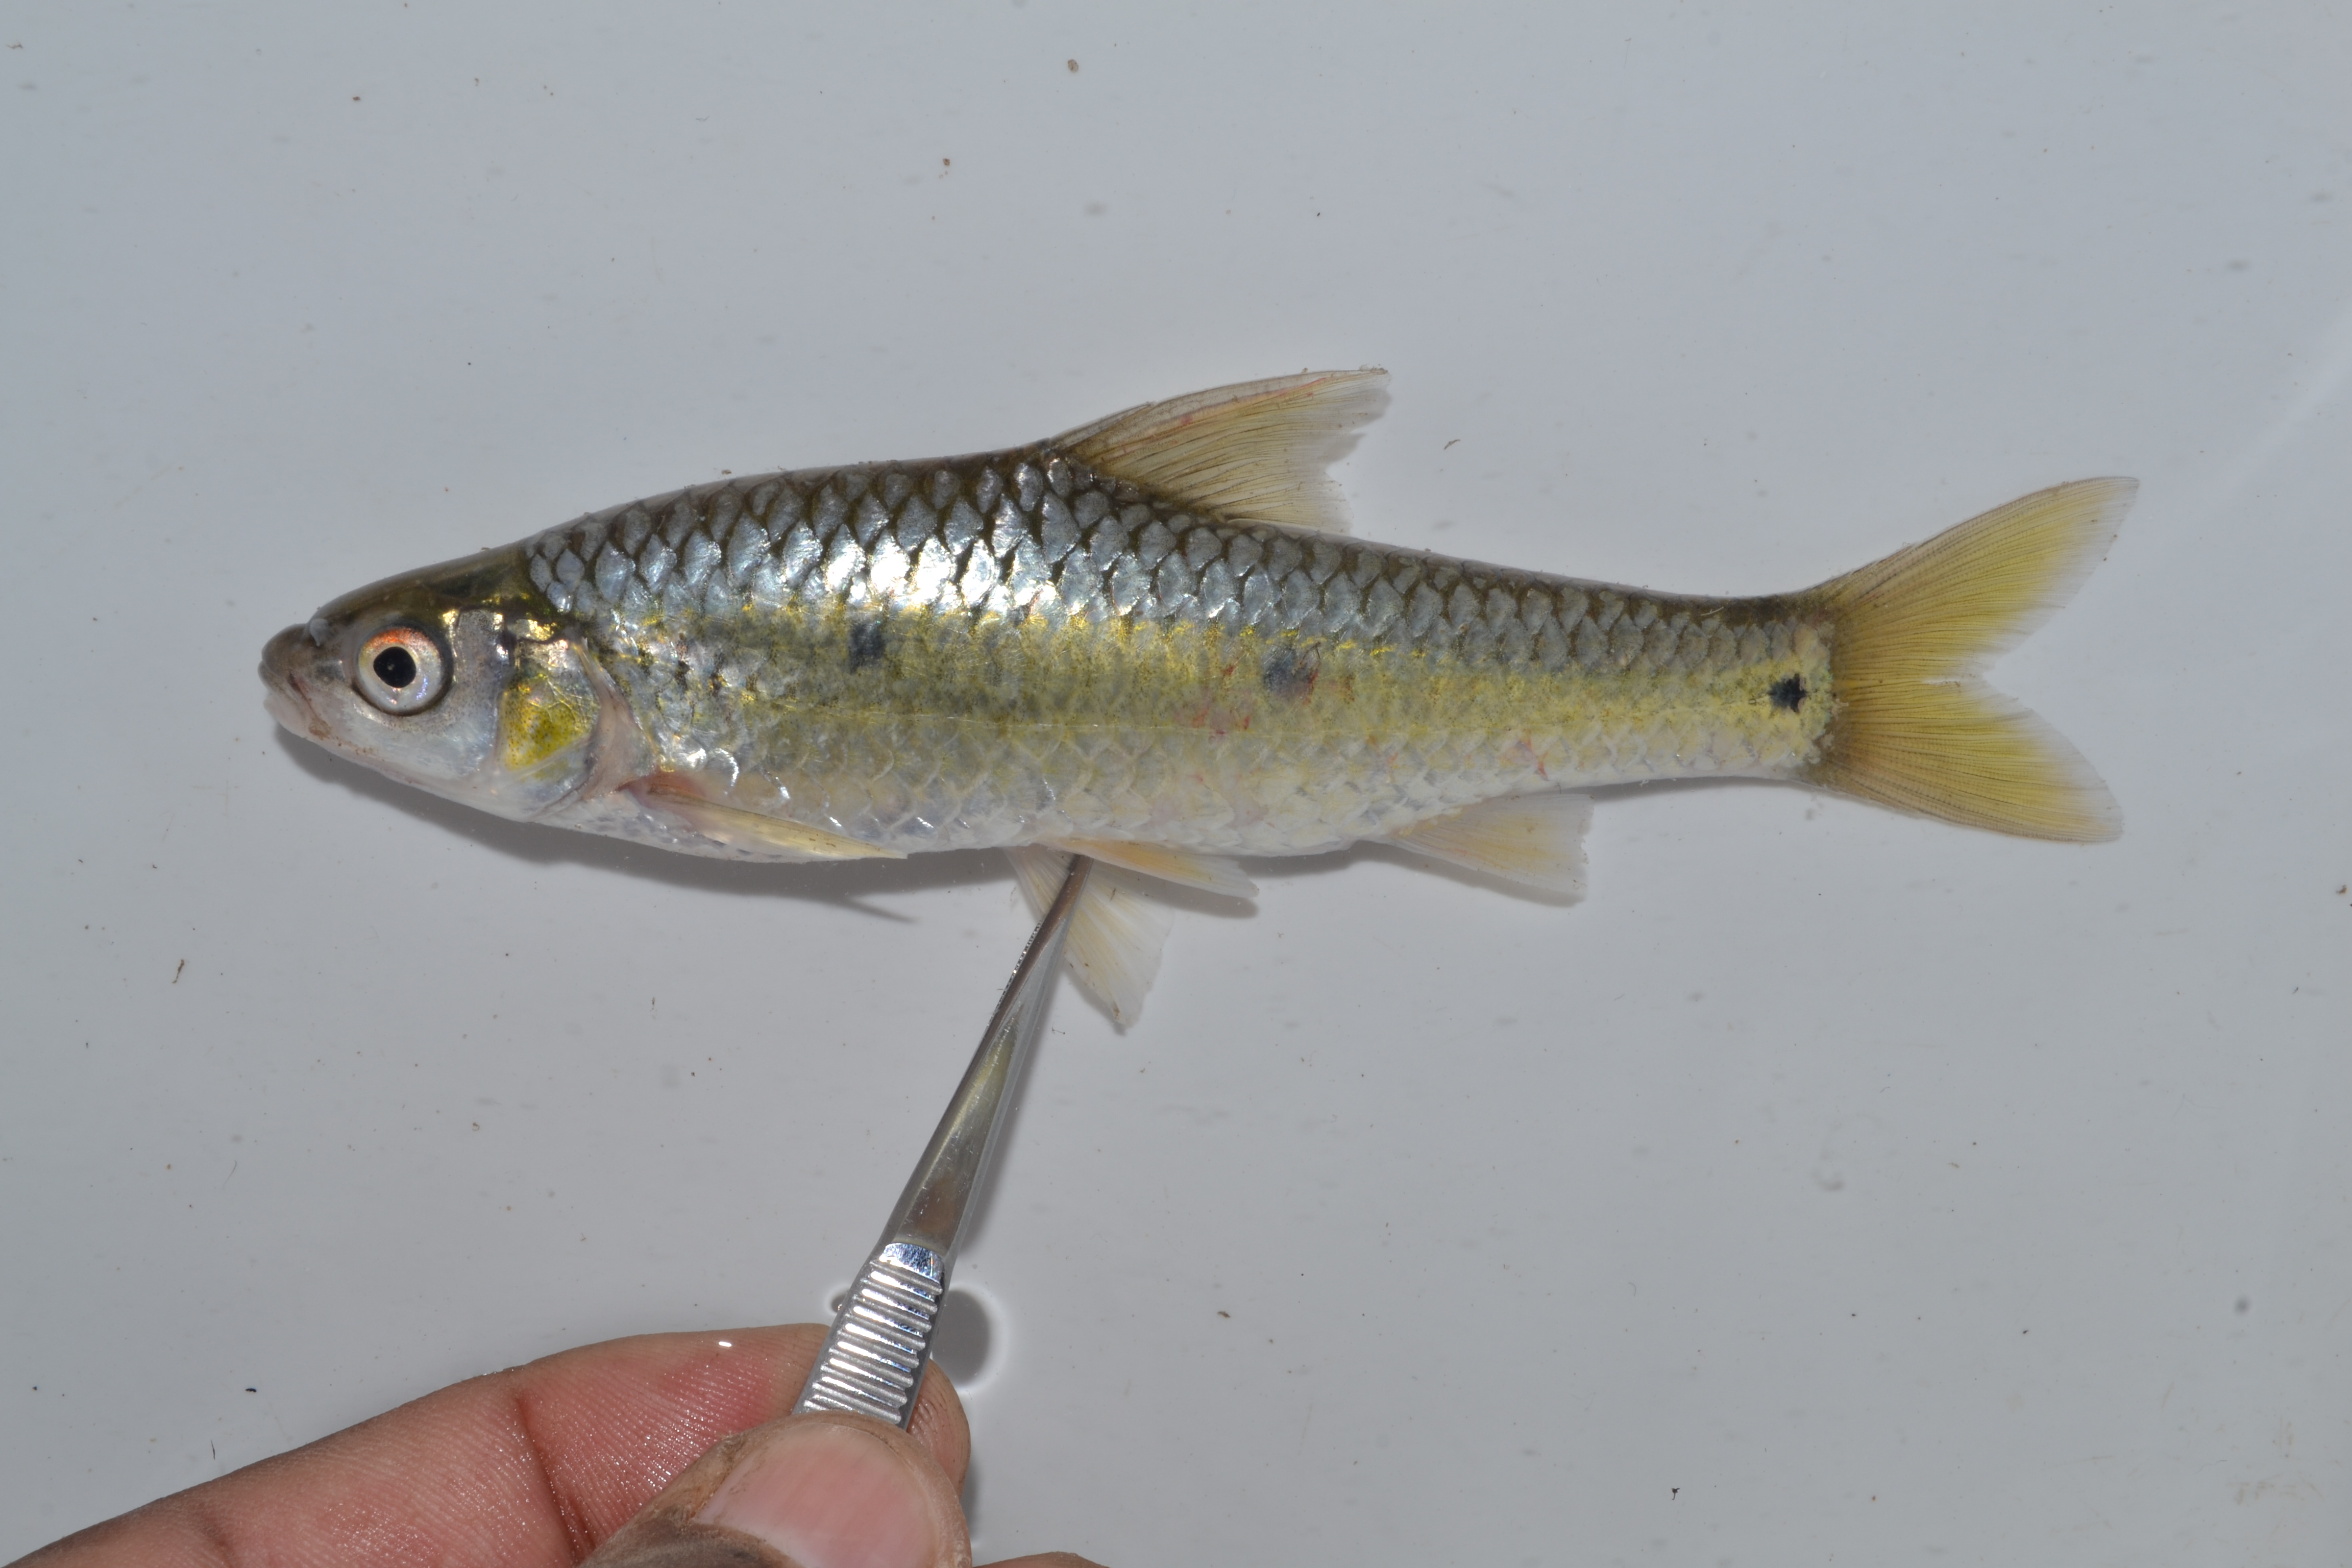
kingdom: Animalia
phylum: Chordata
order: Cypriniformes
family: Cyprinidae
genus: Enteromius
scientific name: Enteromius trimaculatus
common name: Threespot barb
